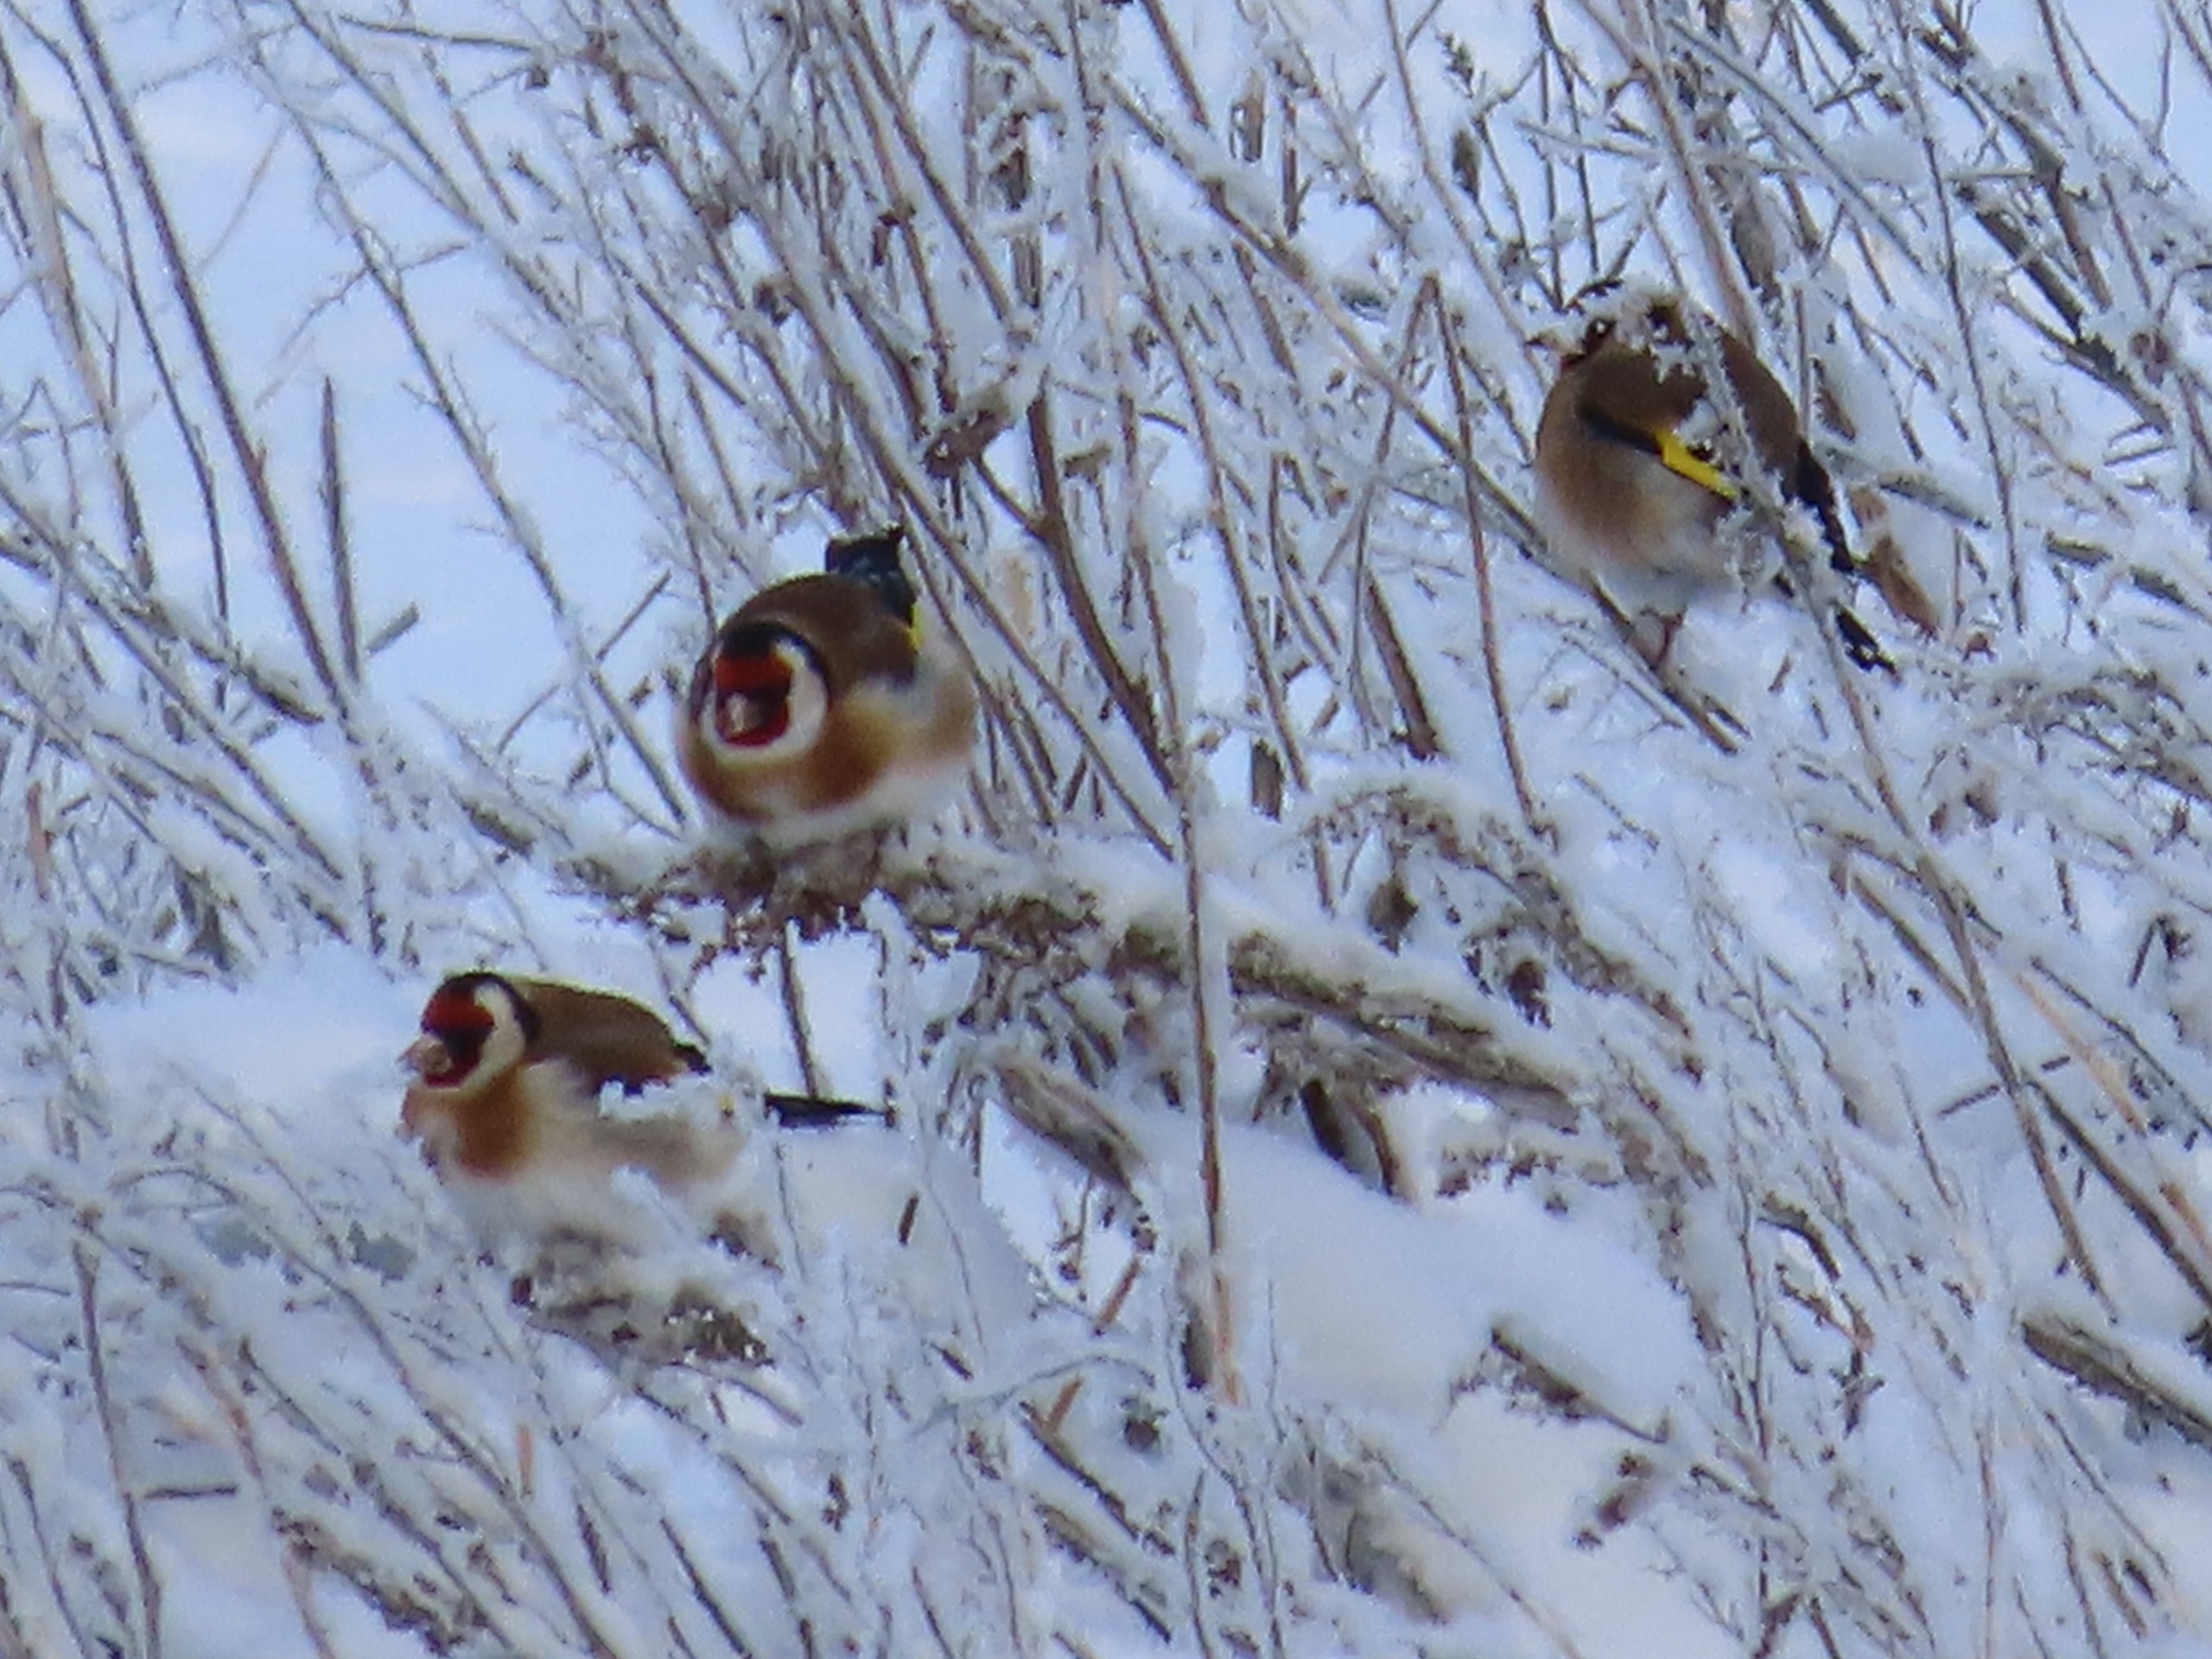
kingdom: Animalia
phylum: Chordata
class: Aves
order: Passeriformes
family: Fringillidae
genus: Carduelis
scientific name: Carduelis carduelis
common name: Stillits
